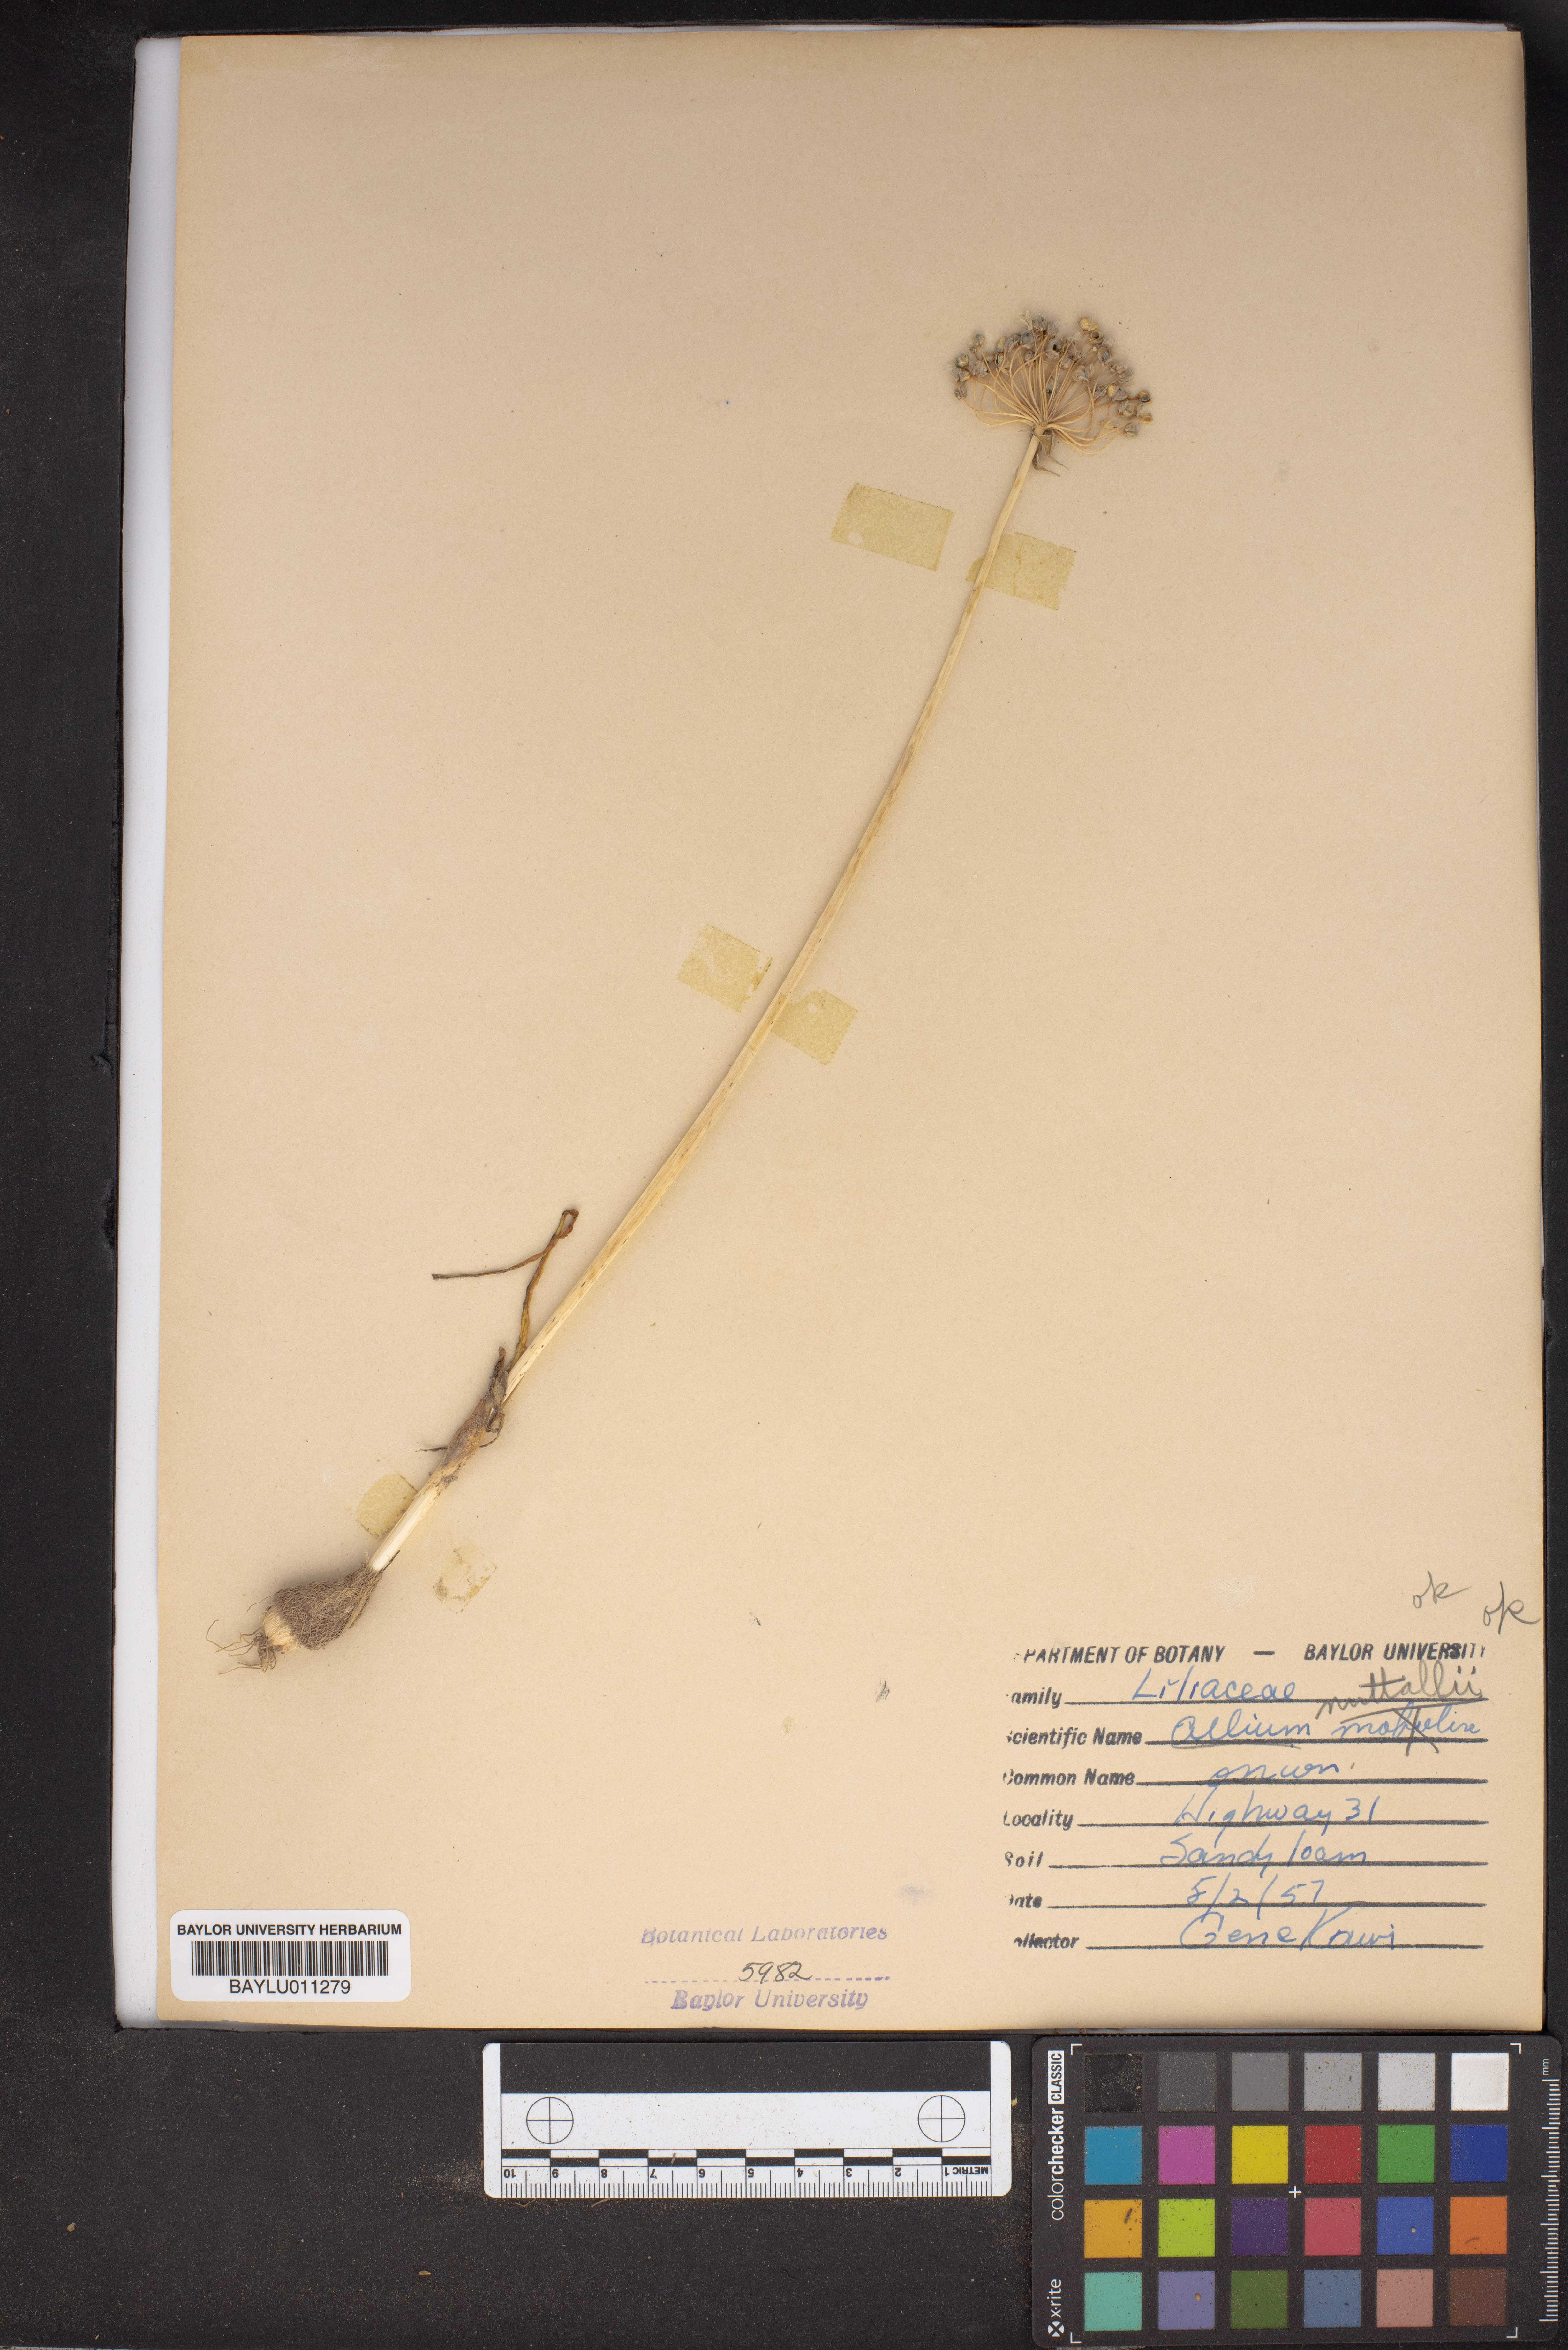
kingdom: Plantae
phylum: Tracheophyta
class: Liliopsida
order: Asparagales
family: Amaryllidaceae
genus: Allium
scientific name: Allium drummondii
